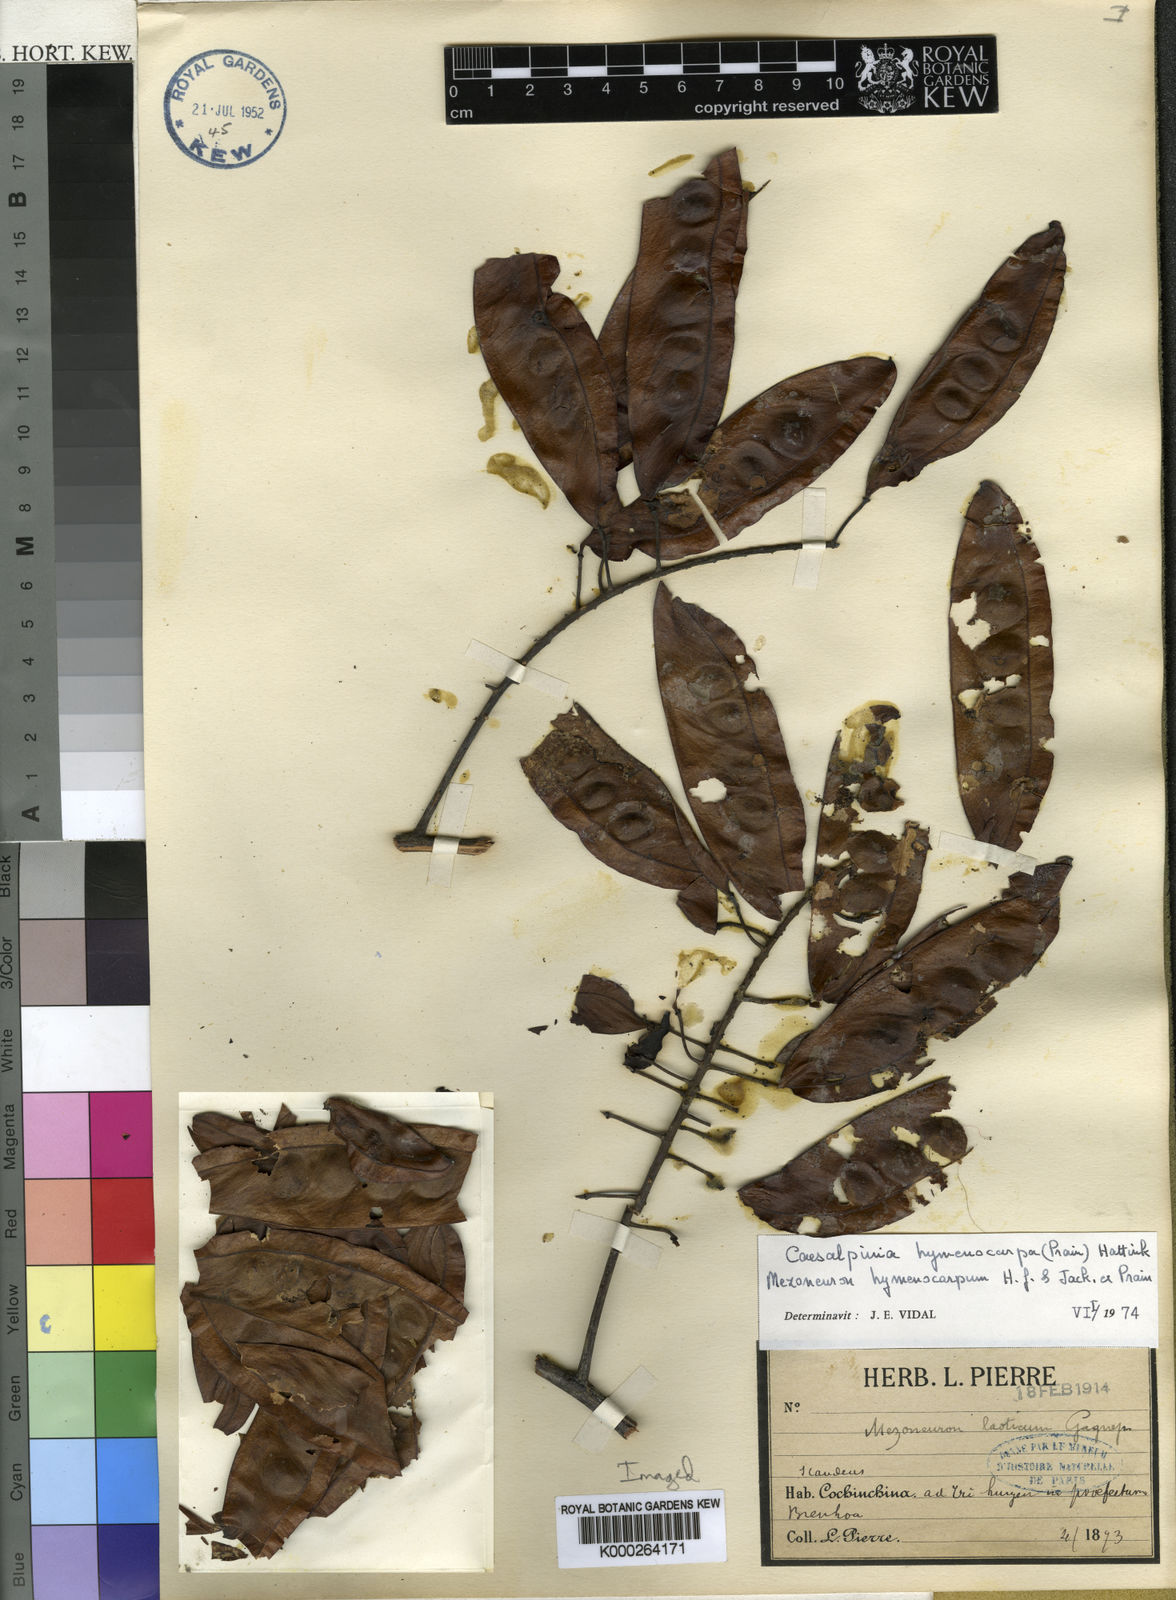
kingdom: Plantae
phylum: Tracheophyta
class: Magnoliopsida
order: Fabales
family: Fabaceae
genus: Caesalpinia
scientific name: Caesalpinia
